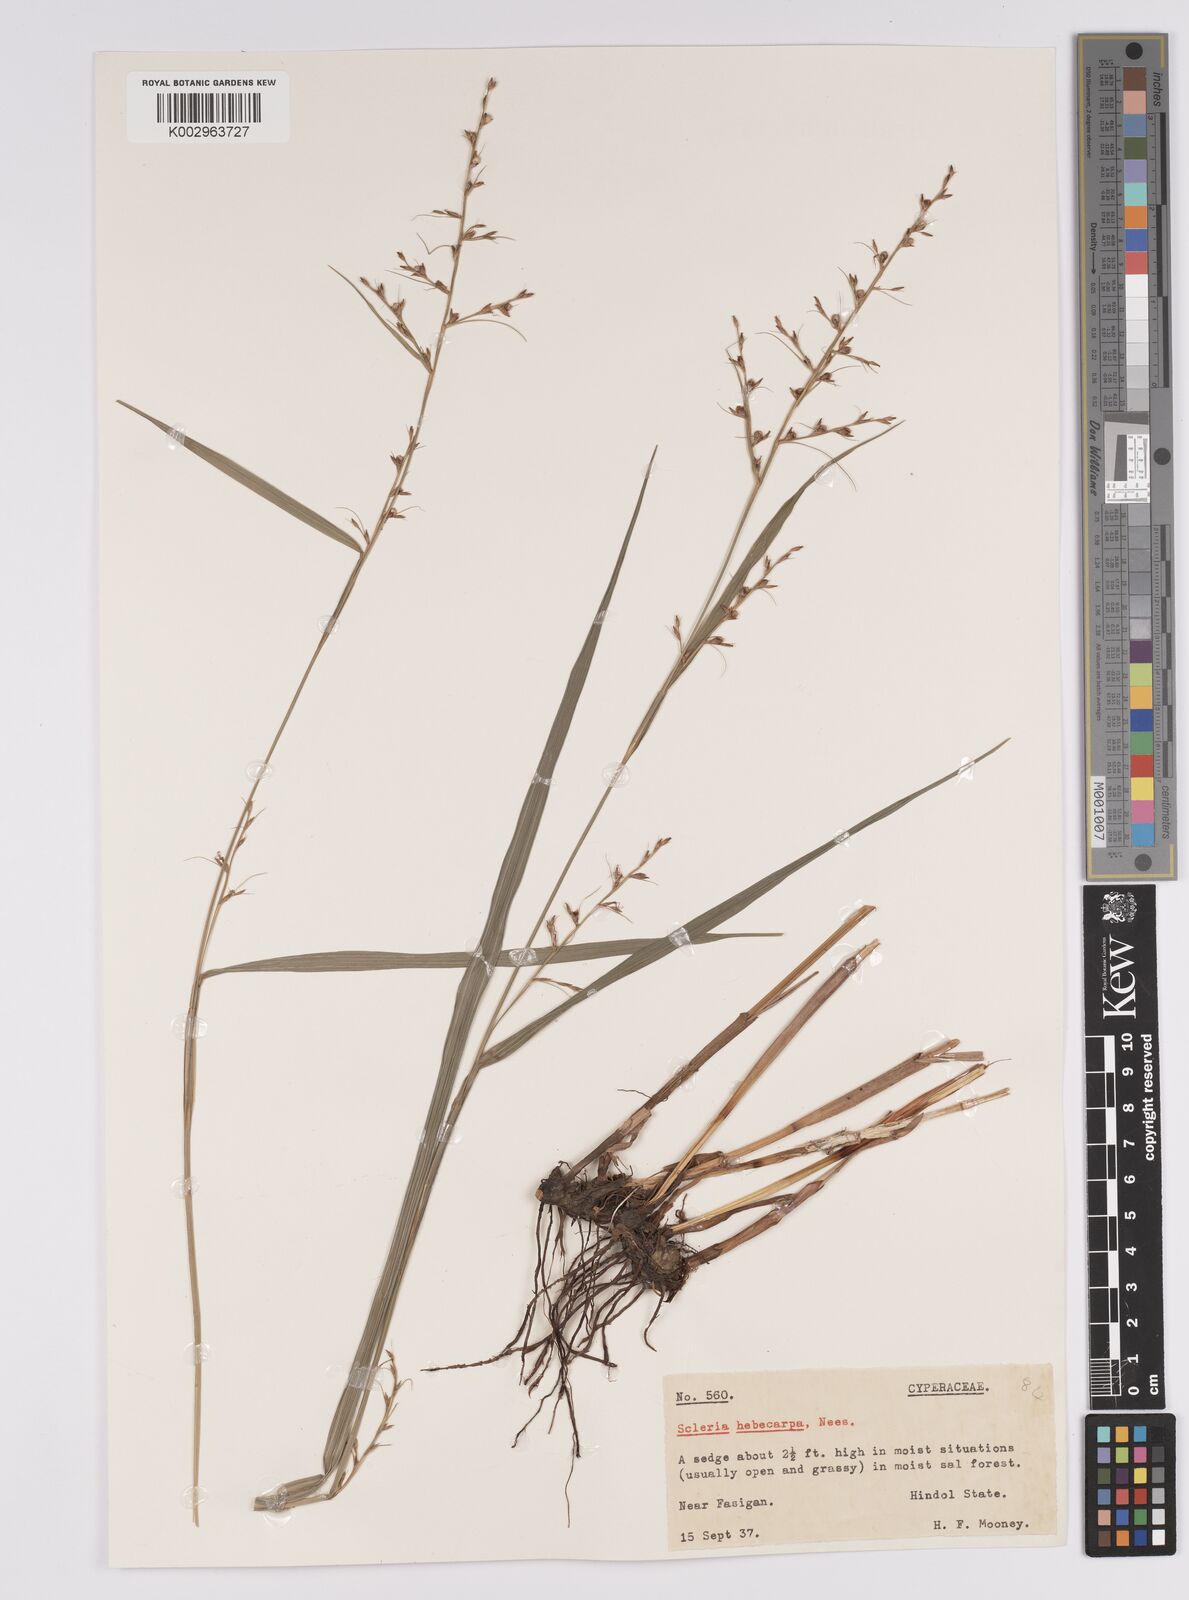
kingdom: Plantae
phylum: Tracheophyta
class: Liliopsida
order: Poales
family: Cyperaceae
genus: Scleria
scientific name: Scleria levis
